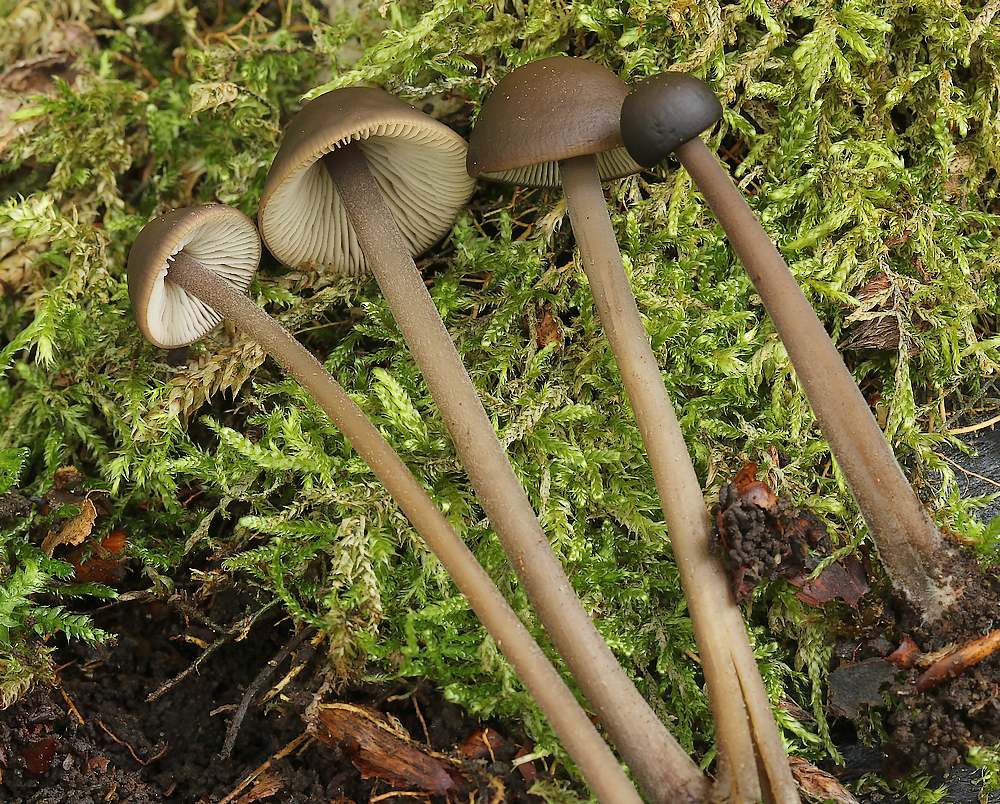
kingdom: Fungi
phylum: Basidiomycota
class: Agaricomycetes
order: Agaricales
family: Omphalotaceae
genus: Mycetinis
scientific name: Mycetinis alliaceus
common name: stor løghat
